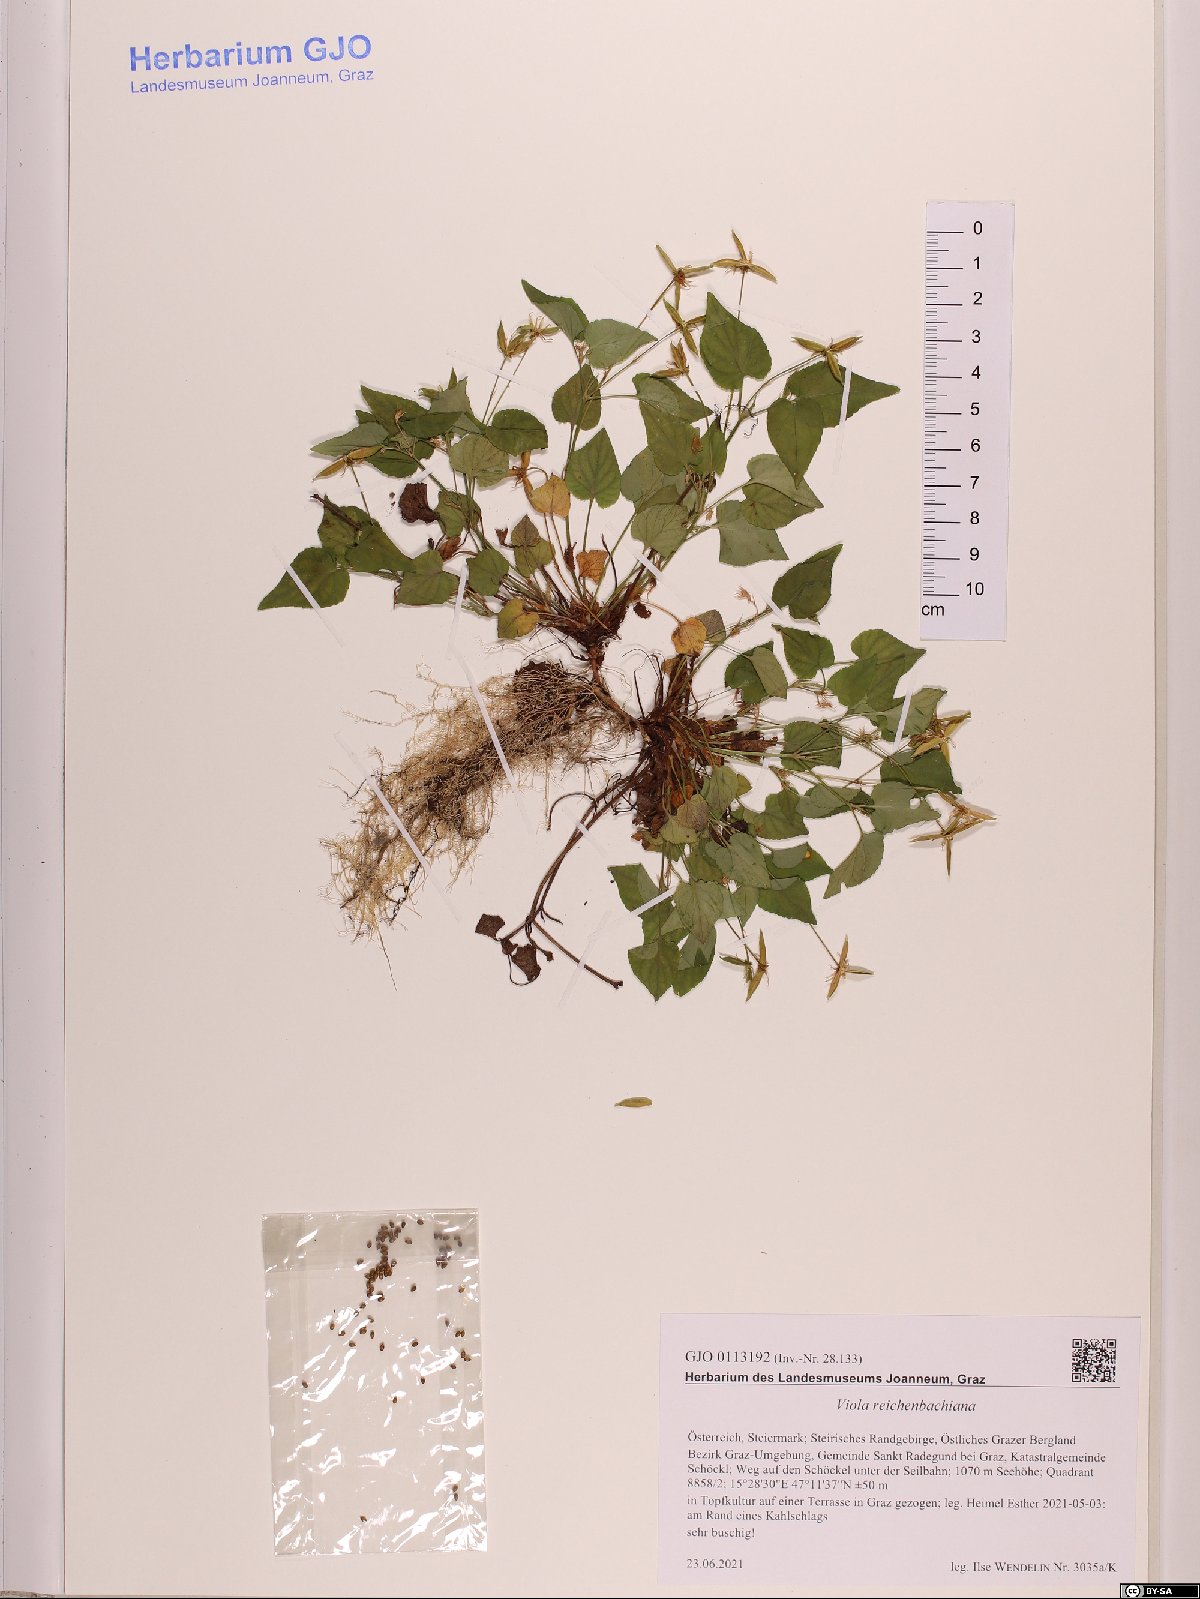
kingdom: Plantae
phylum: Tracheophyta
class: Magnoliopsida
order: Malpighiales
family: Violaceae
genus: Viola
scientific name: Viola reichenbachiana
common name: Early dog-violet
